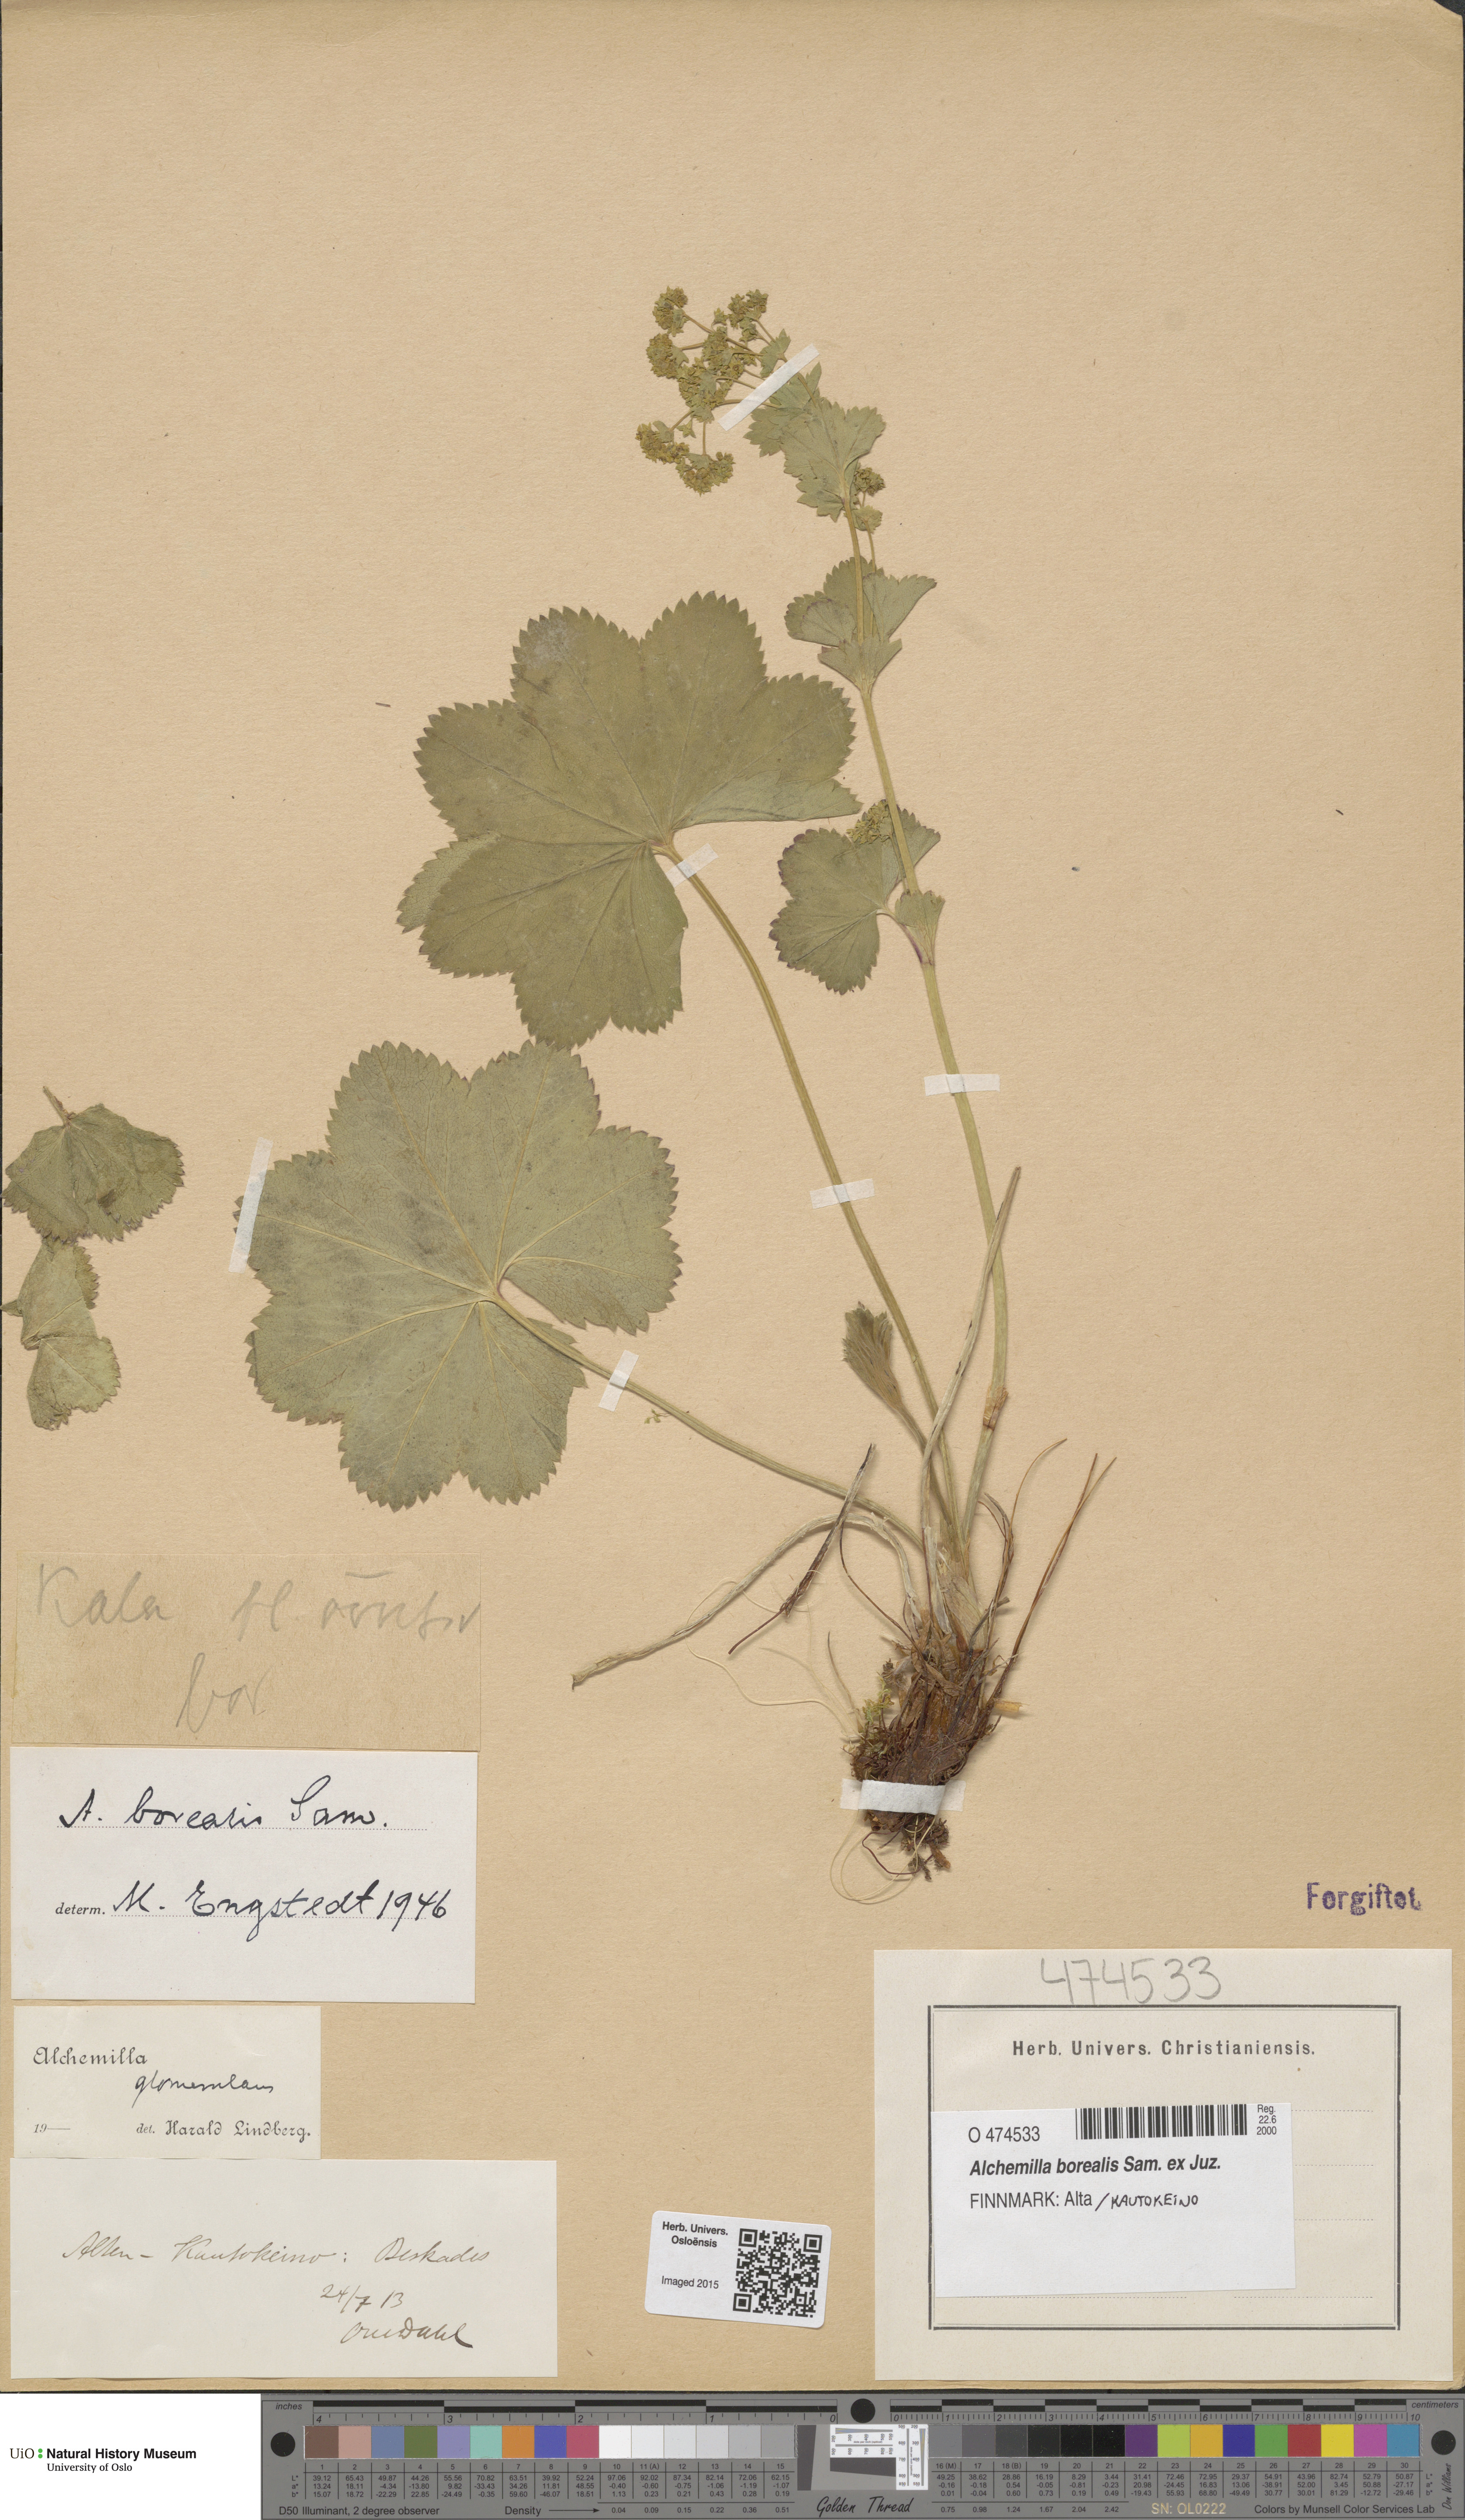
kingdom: Plantae
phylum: Tracheophyta
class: Magnoliopsida
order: Rosales
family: Rosaceae
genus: Alchemilla
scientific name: Alchemilla borealis
